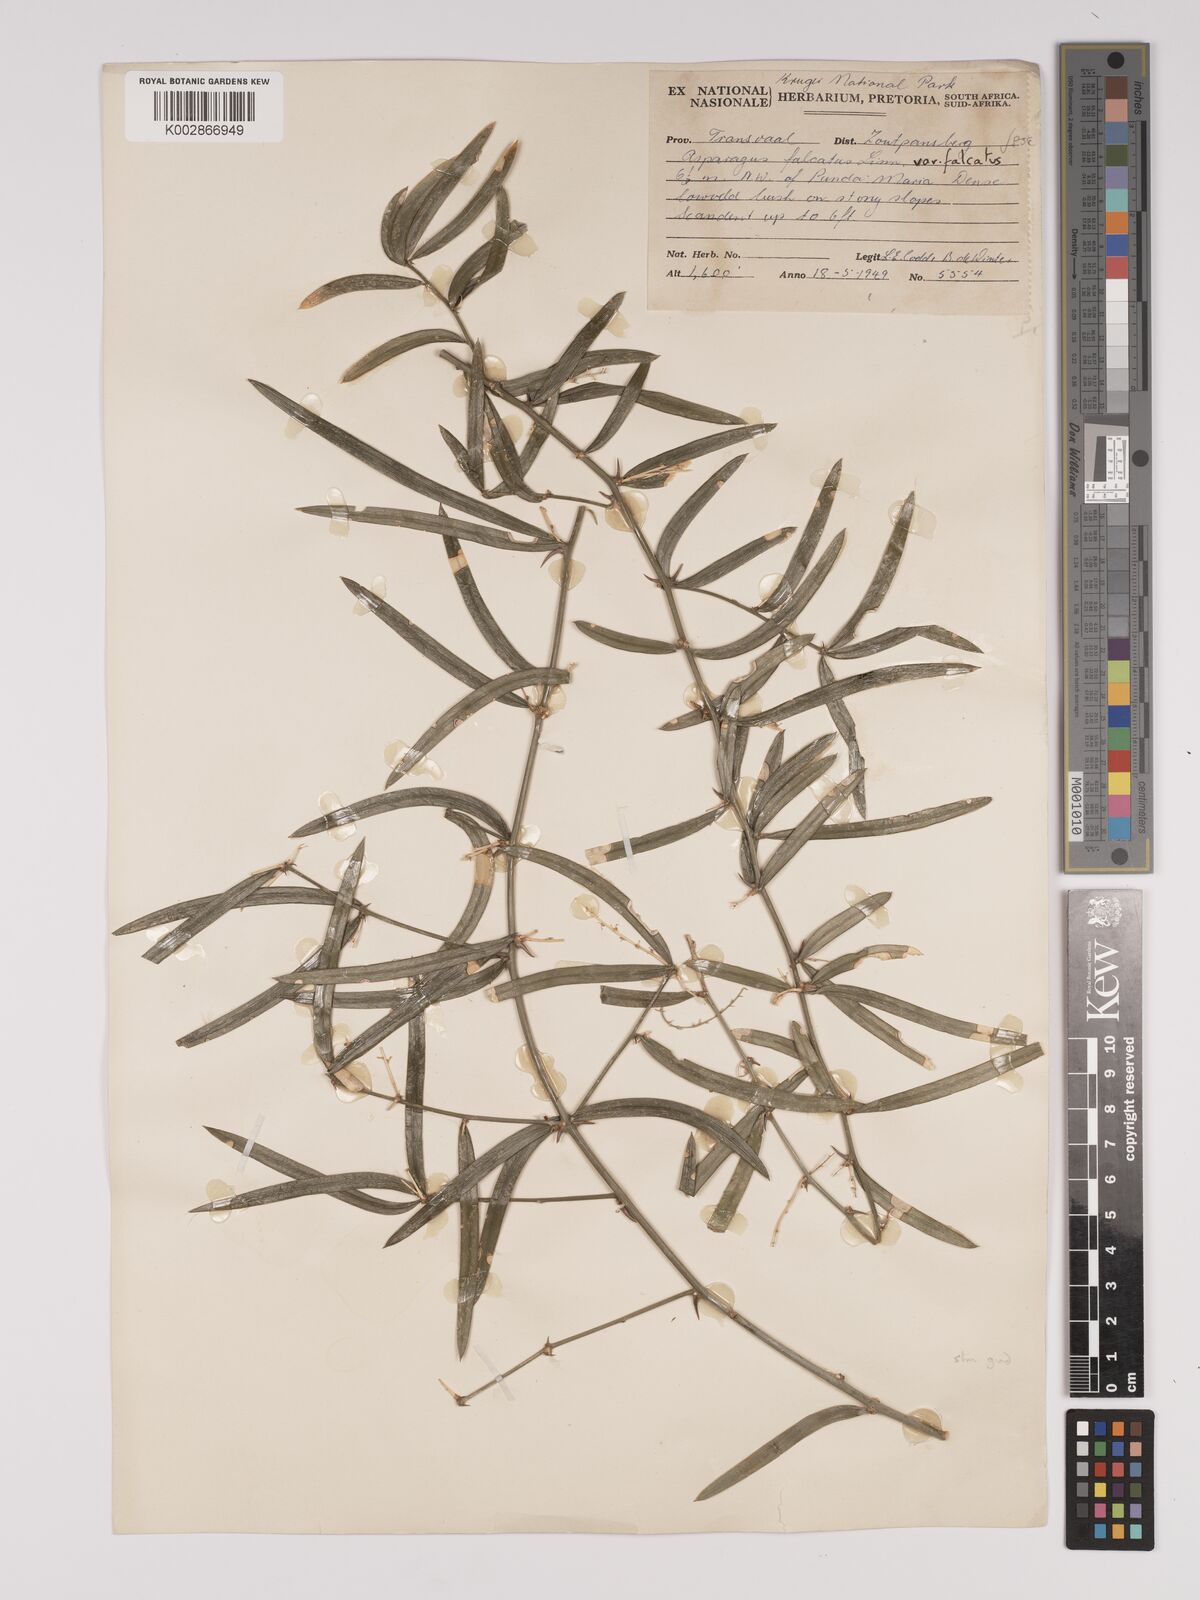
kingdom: Plantae
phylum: Tracheophyta
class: Liliopsida
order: Asparagales
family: Asparagaceae
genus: Asparagus
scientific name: Asparagus falcatus
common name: Asparagus
